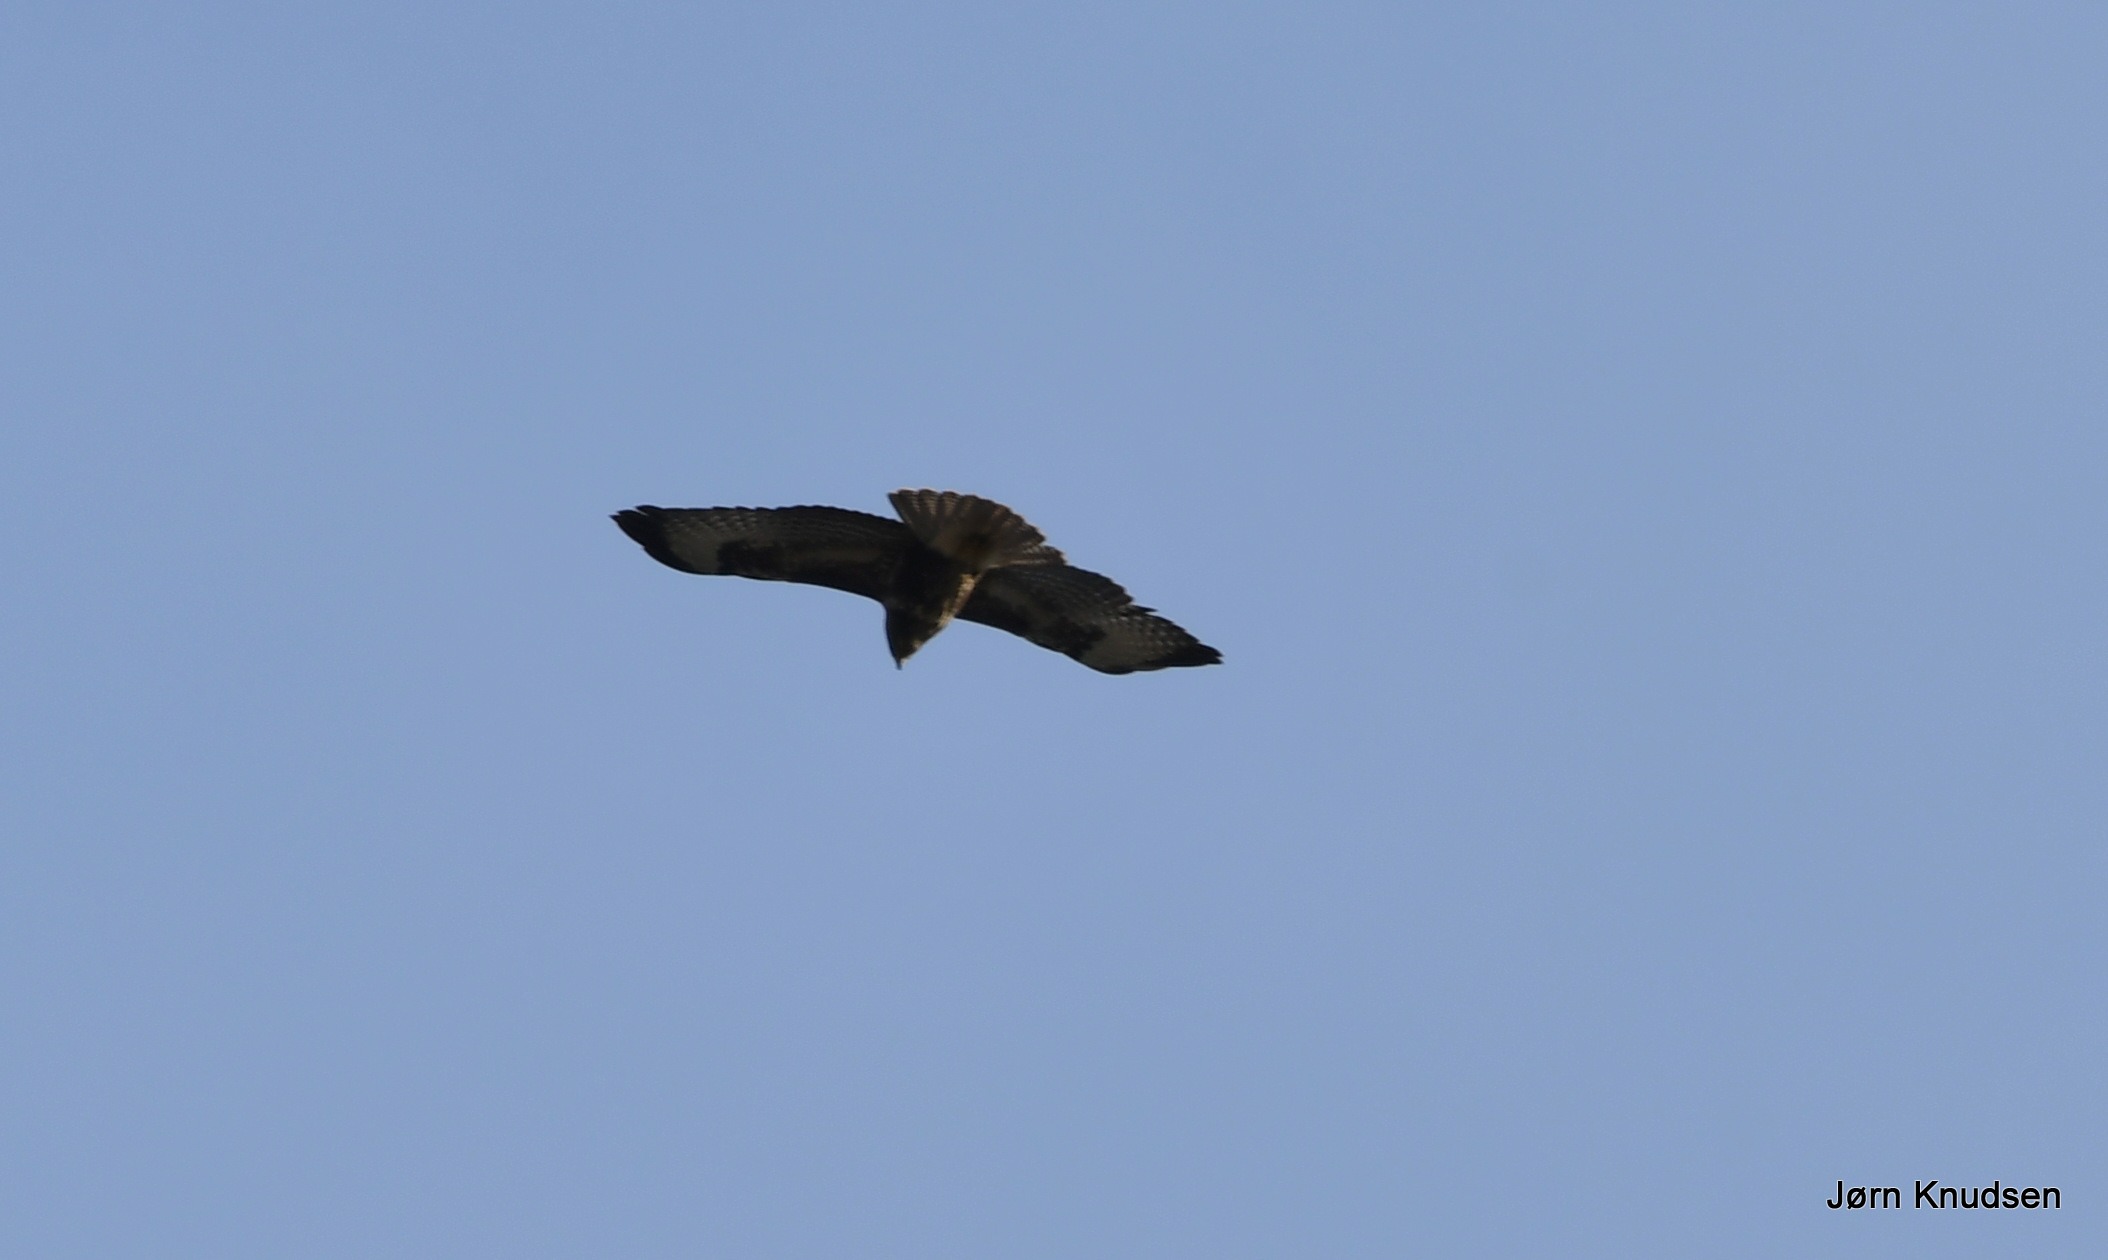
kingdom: Animalia
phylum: Chordata
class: Aves
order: Accipitriformes
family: Accipitridae
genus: Buteo
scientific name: Buteo buteo
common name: Musvåge
